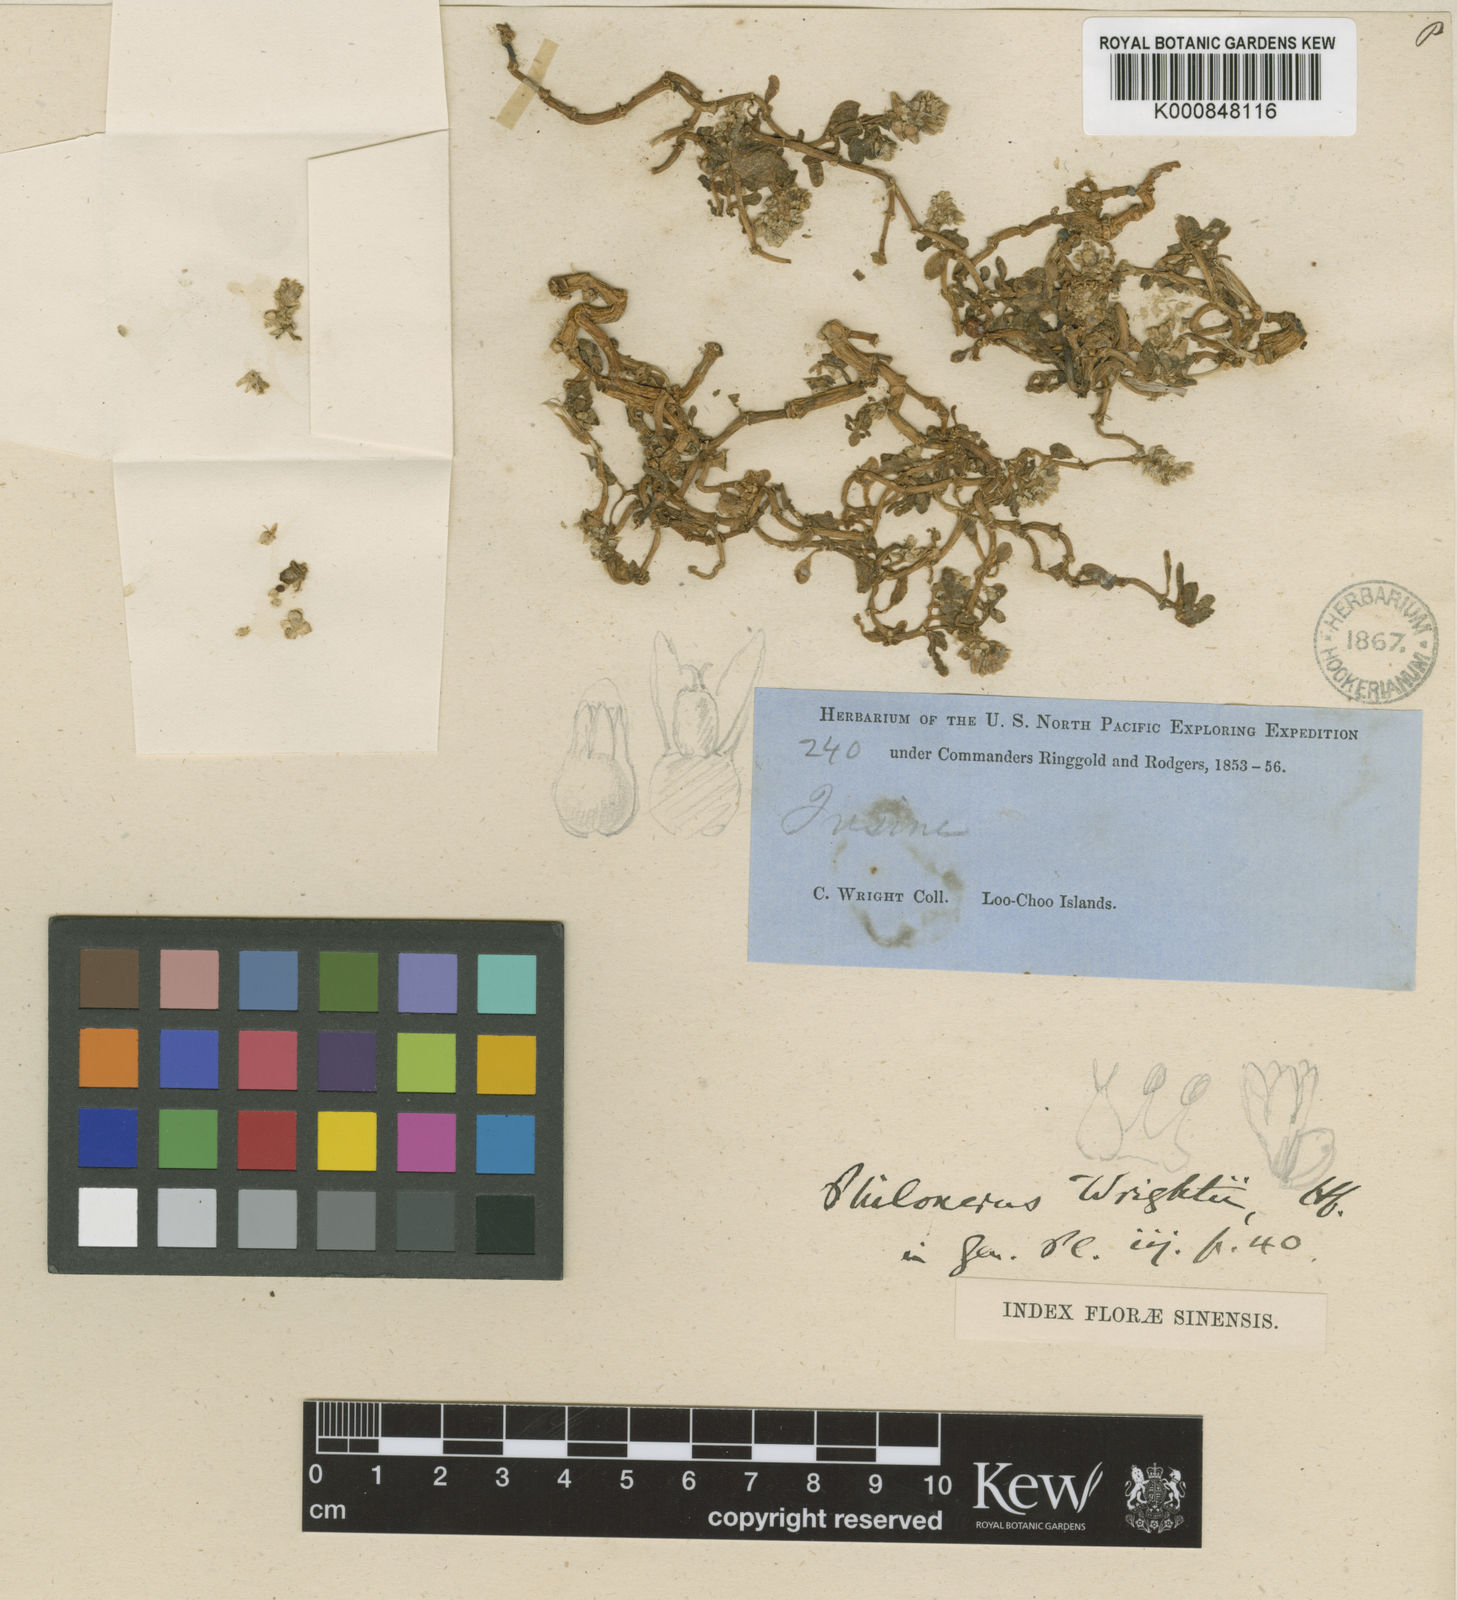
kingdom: Plantae
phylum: Tracheophyta
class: Magnoliopsida
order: Caryophyllales
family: Amaranthaceae
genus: Gomphrena
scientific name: Gomphrena wrightii
